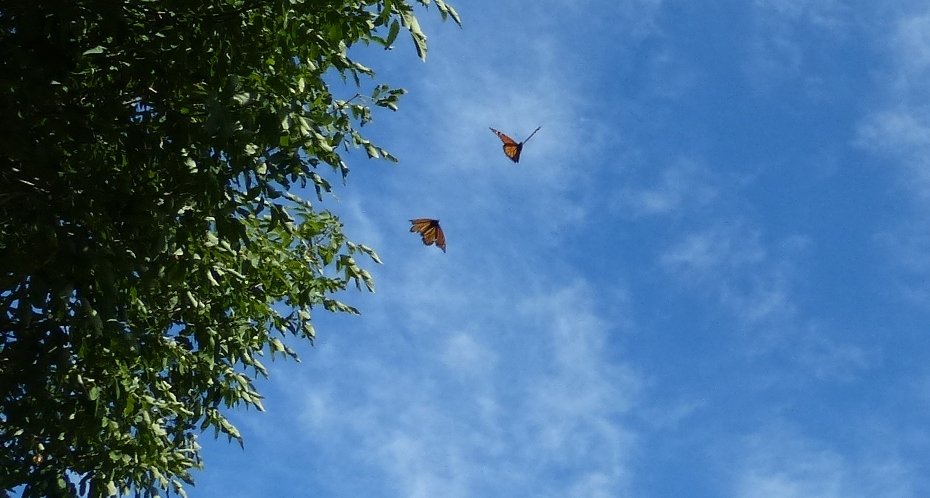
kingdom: Animalia
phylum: Arthropoda
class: Insecta
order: Lepidoptera
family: Nymphalidae
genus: Danaus
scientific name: Danaus plexippus
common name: Monarch
